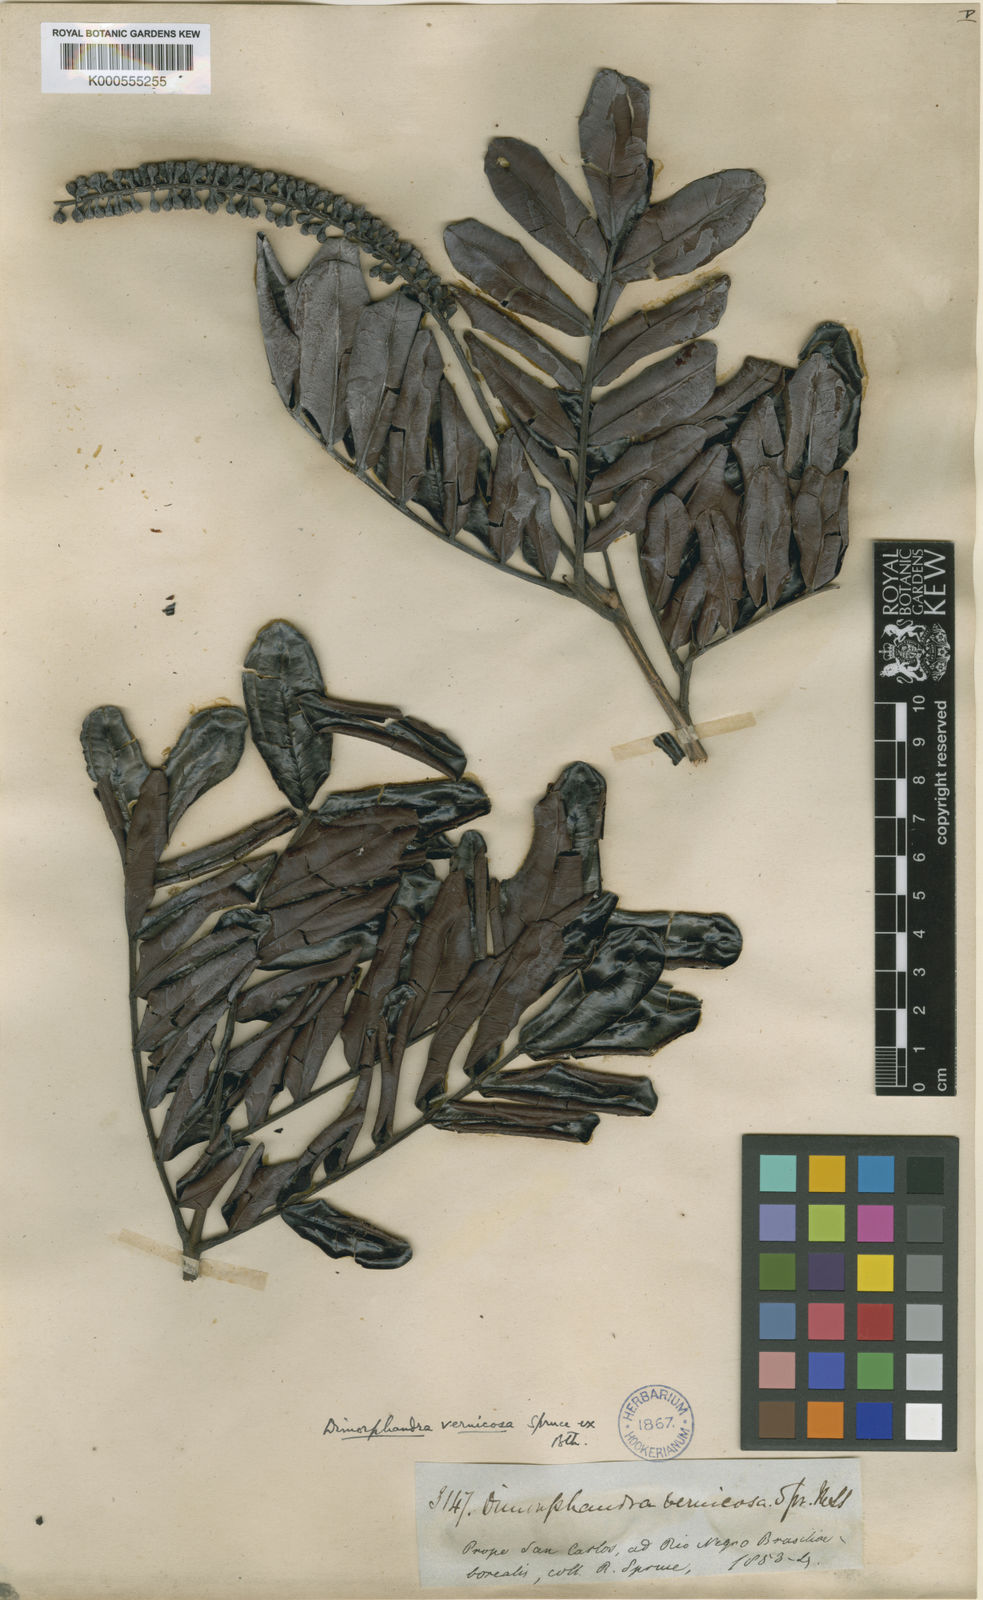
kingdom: Plantae
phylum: Tracheophyta
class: Magnoliopsida
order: Fabales
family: Fabaceae
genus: Dimorphandra
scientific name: Dimorphandra
